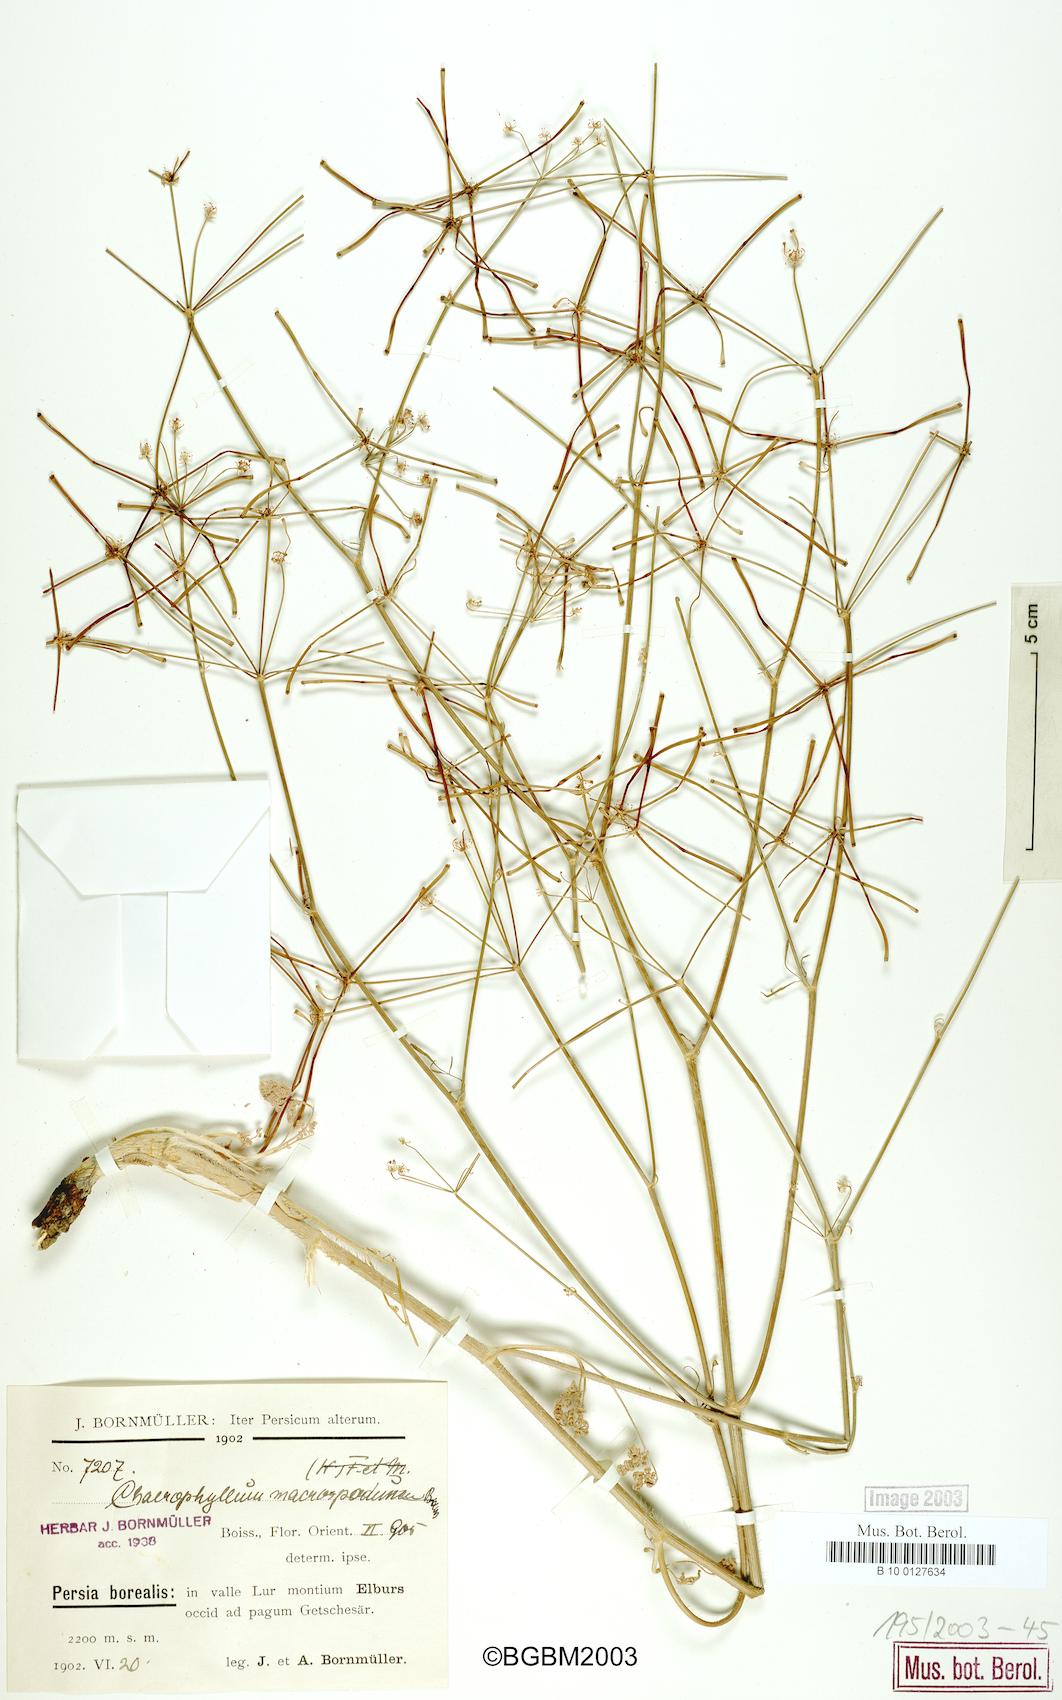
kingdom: Plantae
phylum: Tracheophyta
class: Magnoliopsida
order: Apiales
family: Apiaceae
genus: Chaerophyllum
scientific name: Chaerophyllum macropodum
